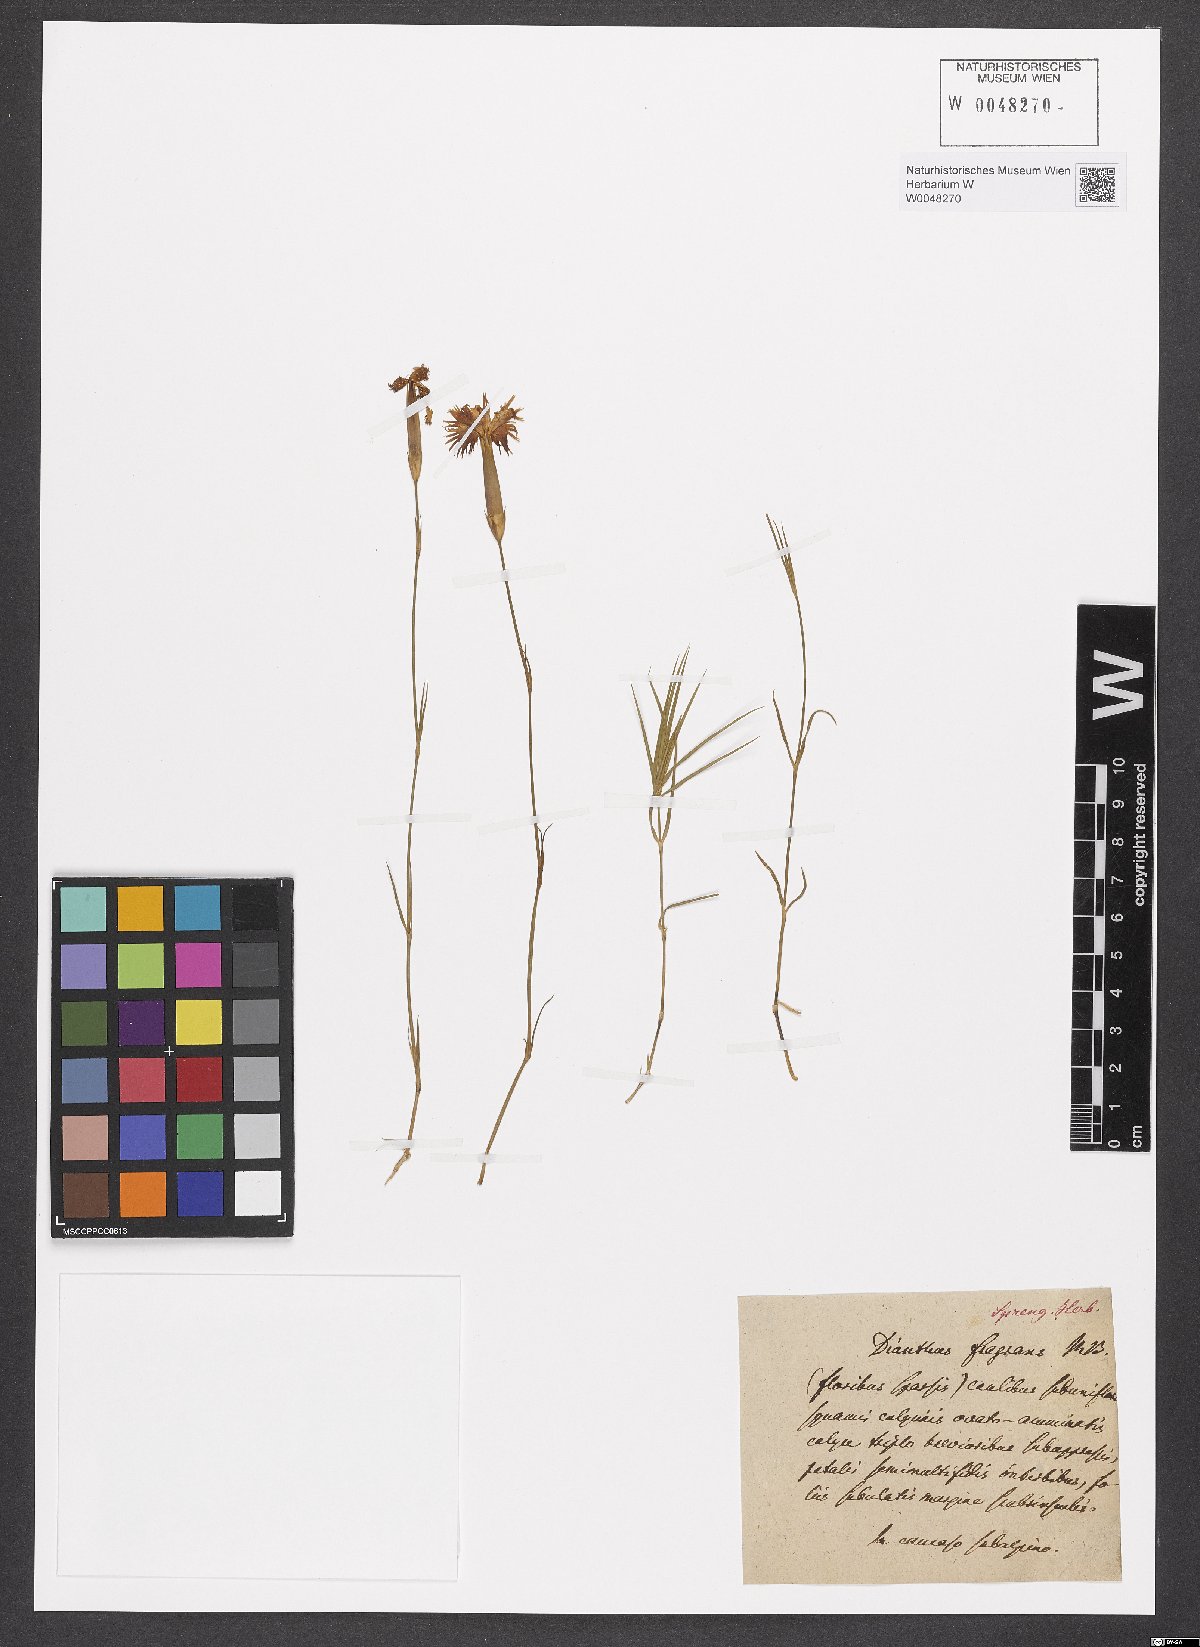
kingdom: Plantae
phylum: Tracheophyta
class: Magnoliopsida
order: Caryophyllales
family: Caryophyllaceae
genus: Dianthus
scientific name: Dianthus fragrans
